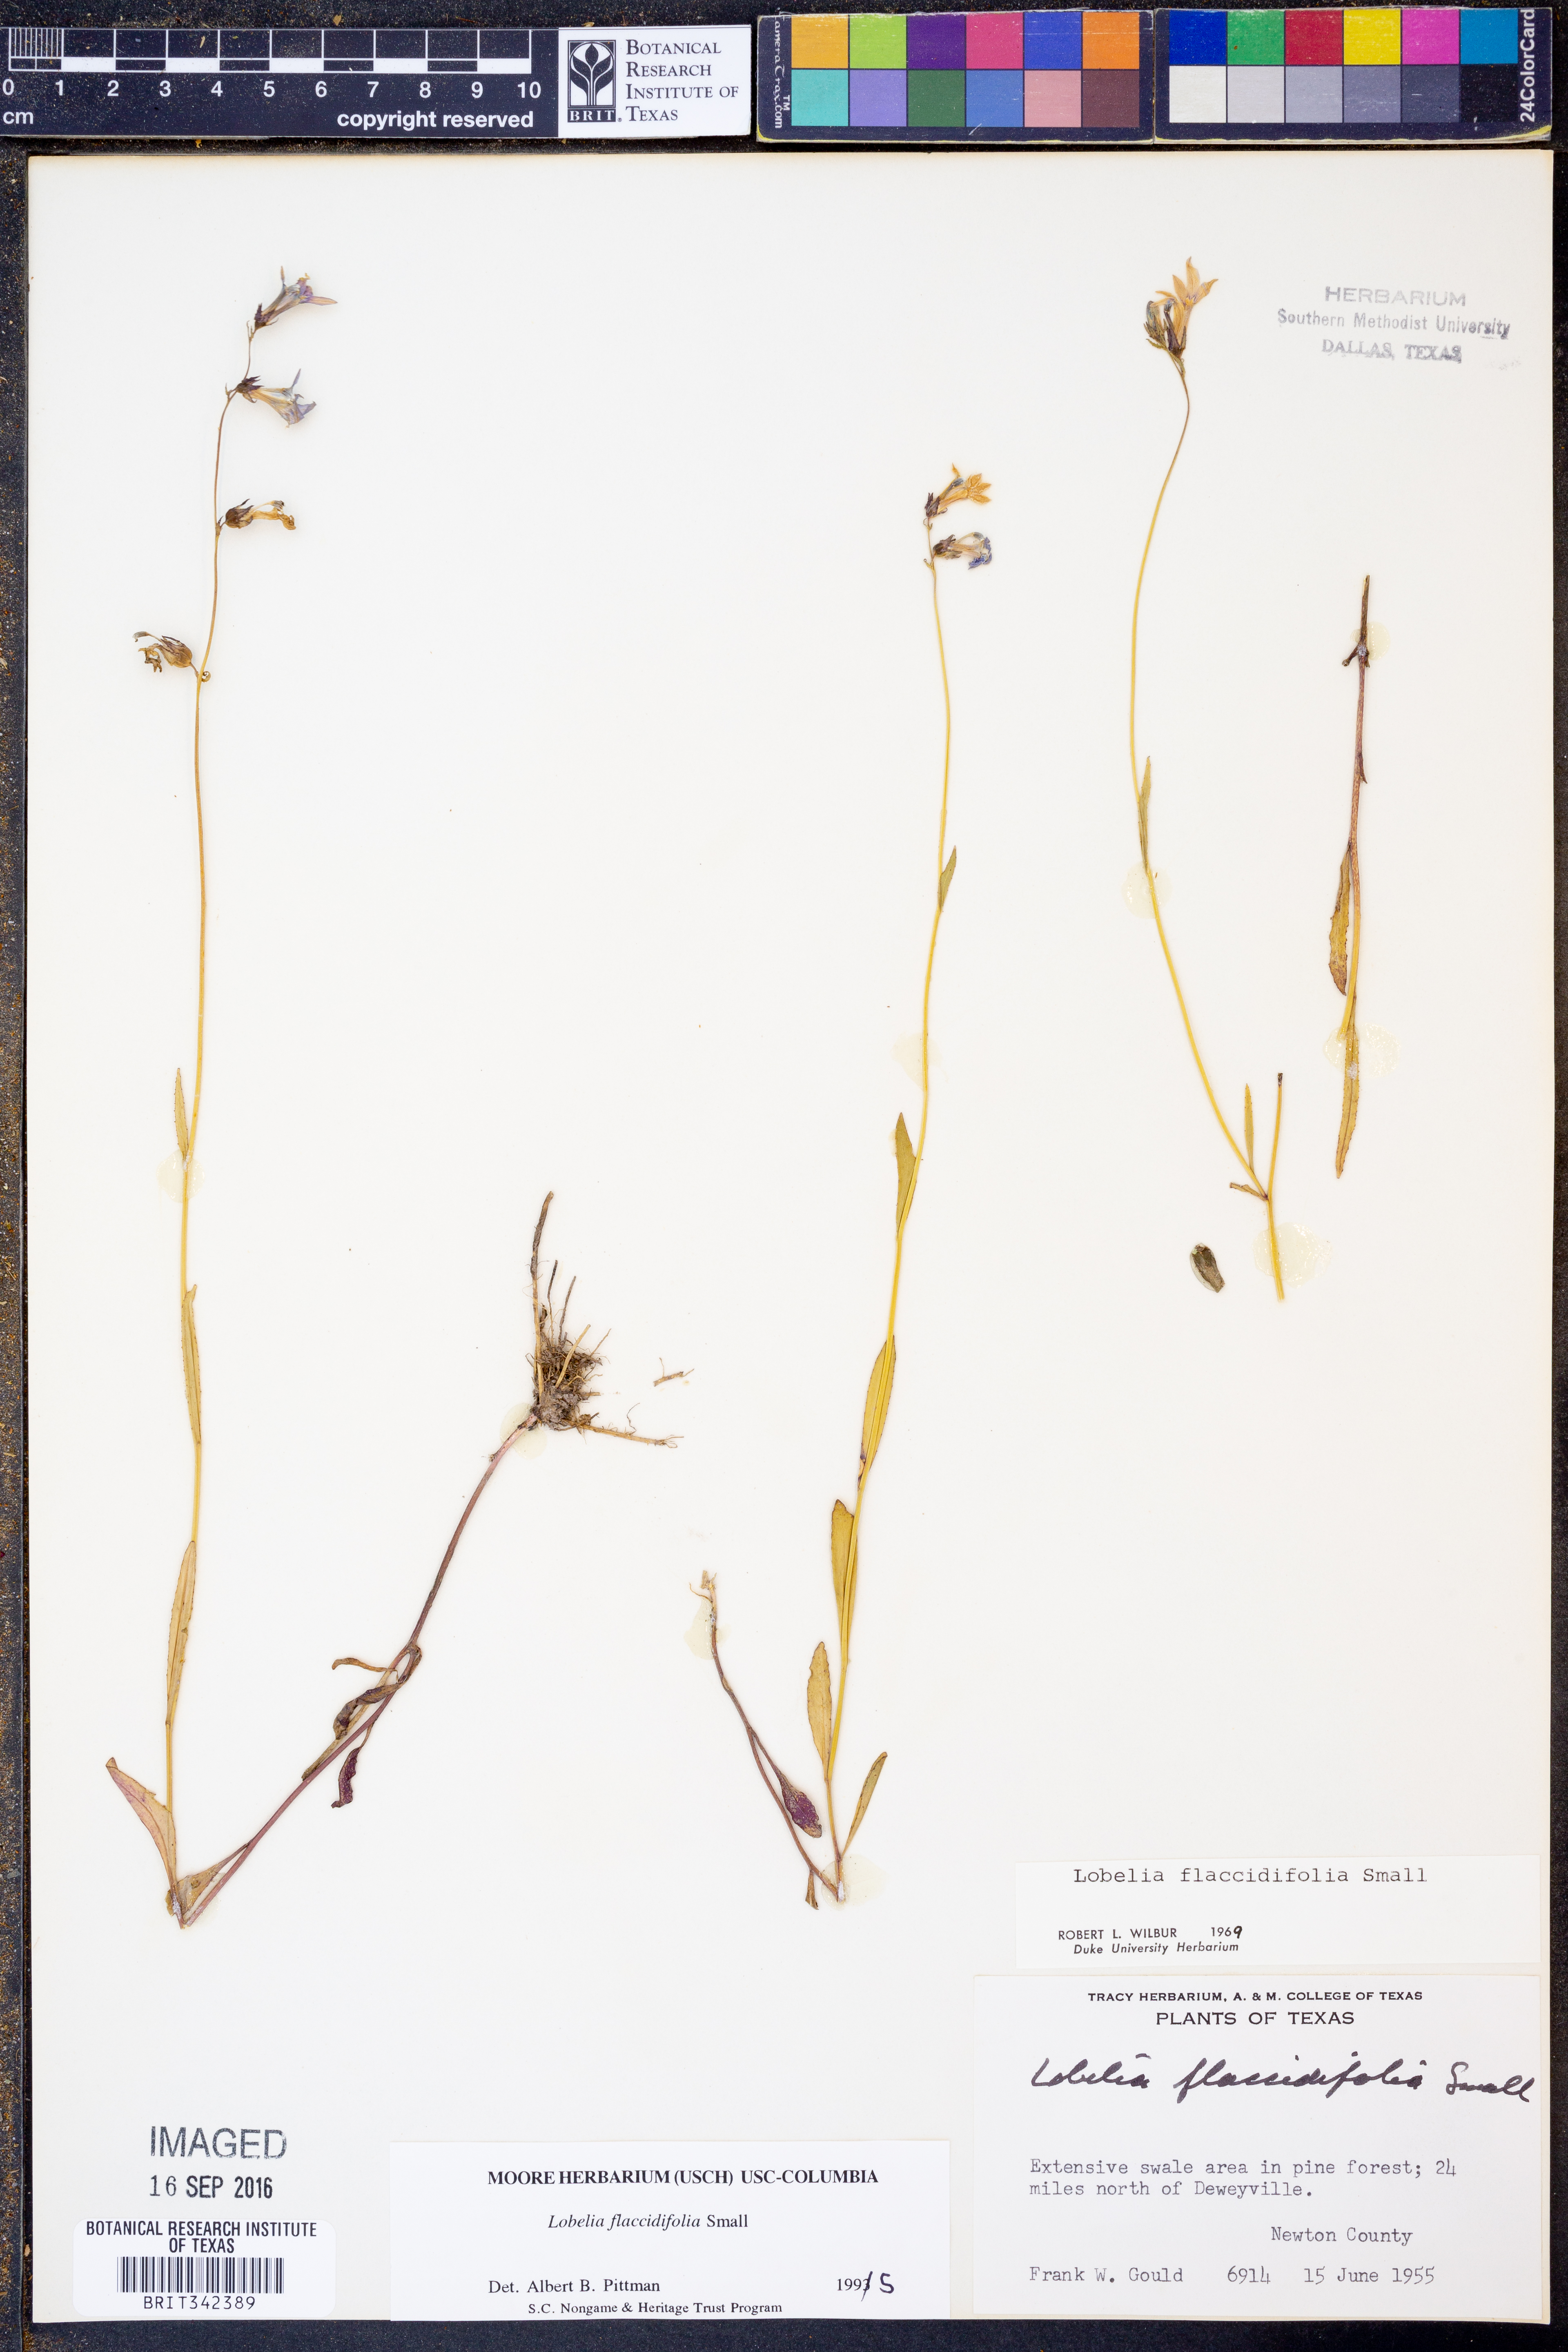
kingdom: Plantae
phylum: Tracheophyta
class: Magnoliopsida
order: Asterales
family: Campanulaceae
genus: Lobelia
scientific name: Lobelia flaccidifolia
